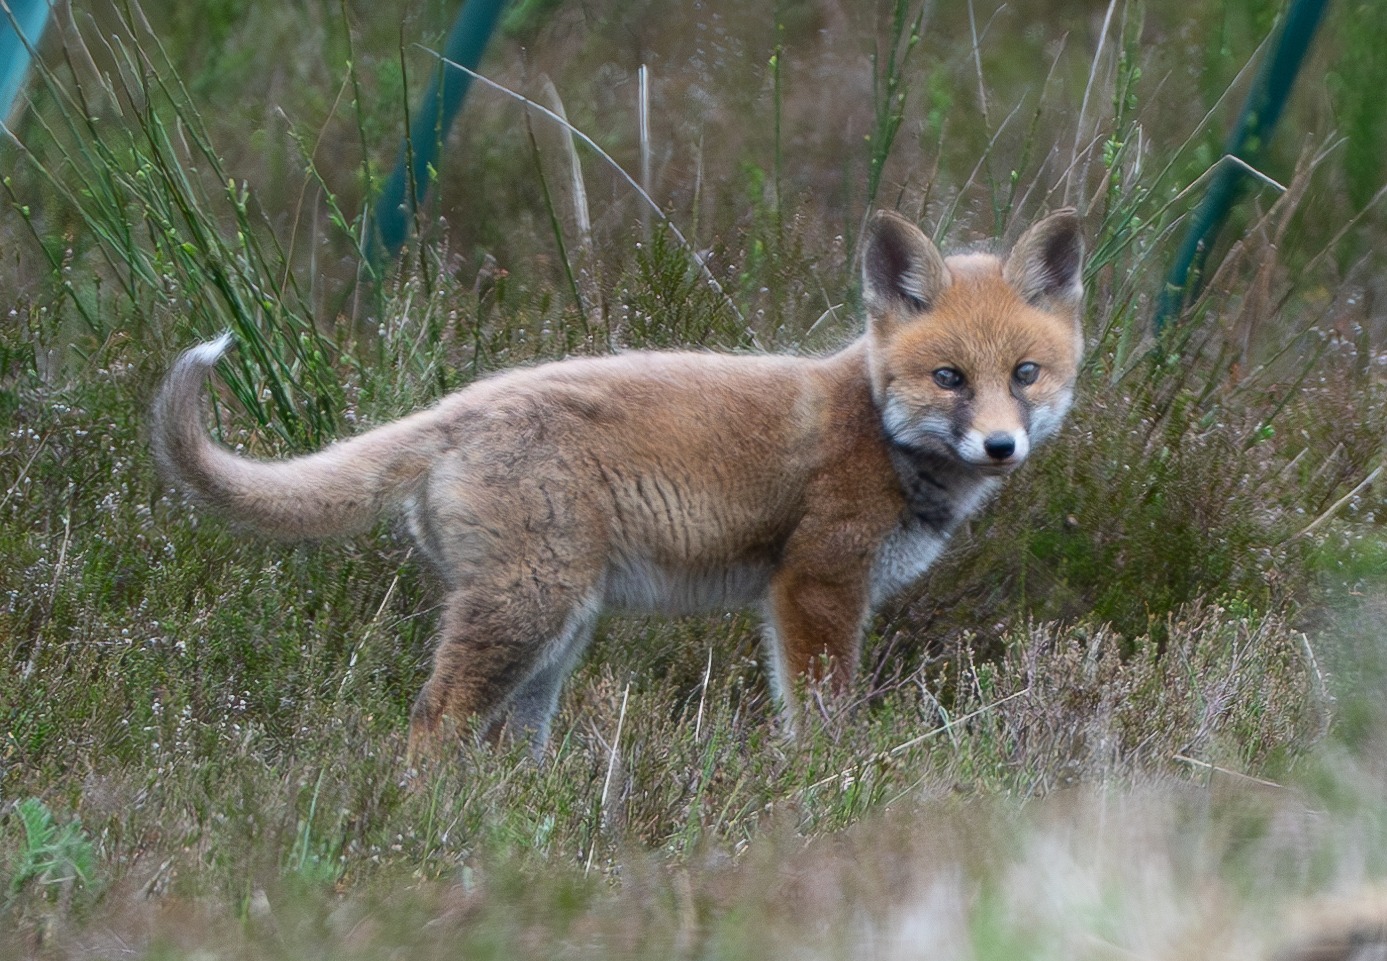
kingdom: Animalia
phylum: Chordata
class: Mammalia
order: Carnivora
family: Canidae
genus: Vulpes
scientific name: Vulpes vulpes
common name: Ræv
